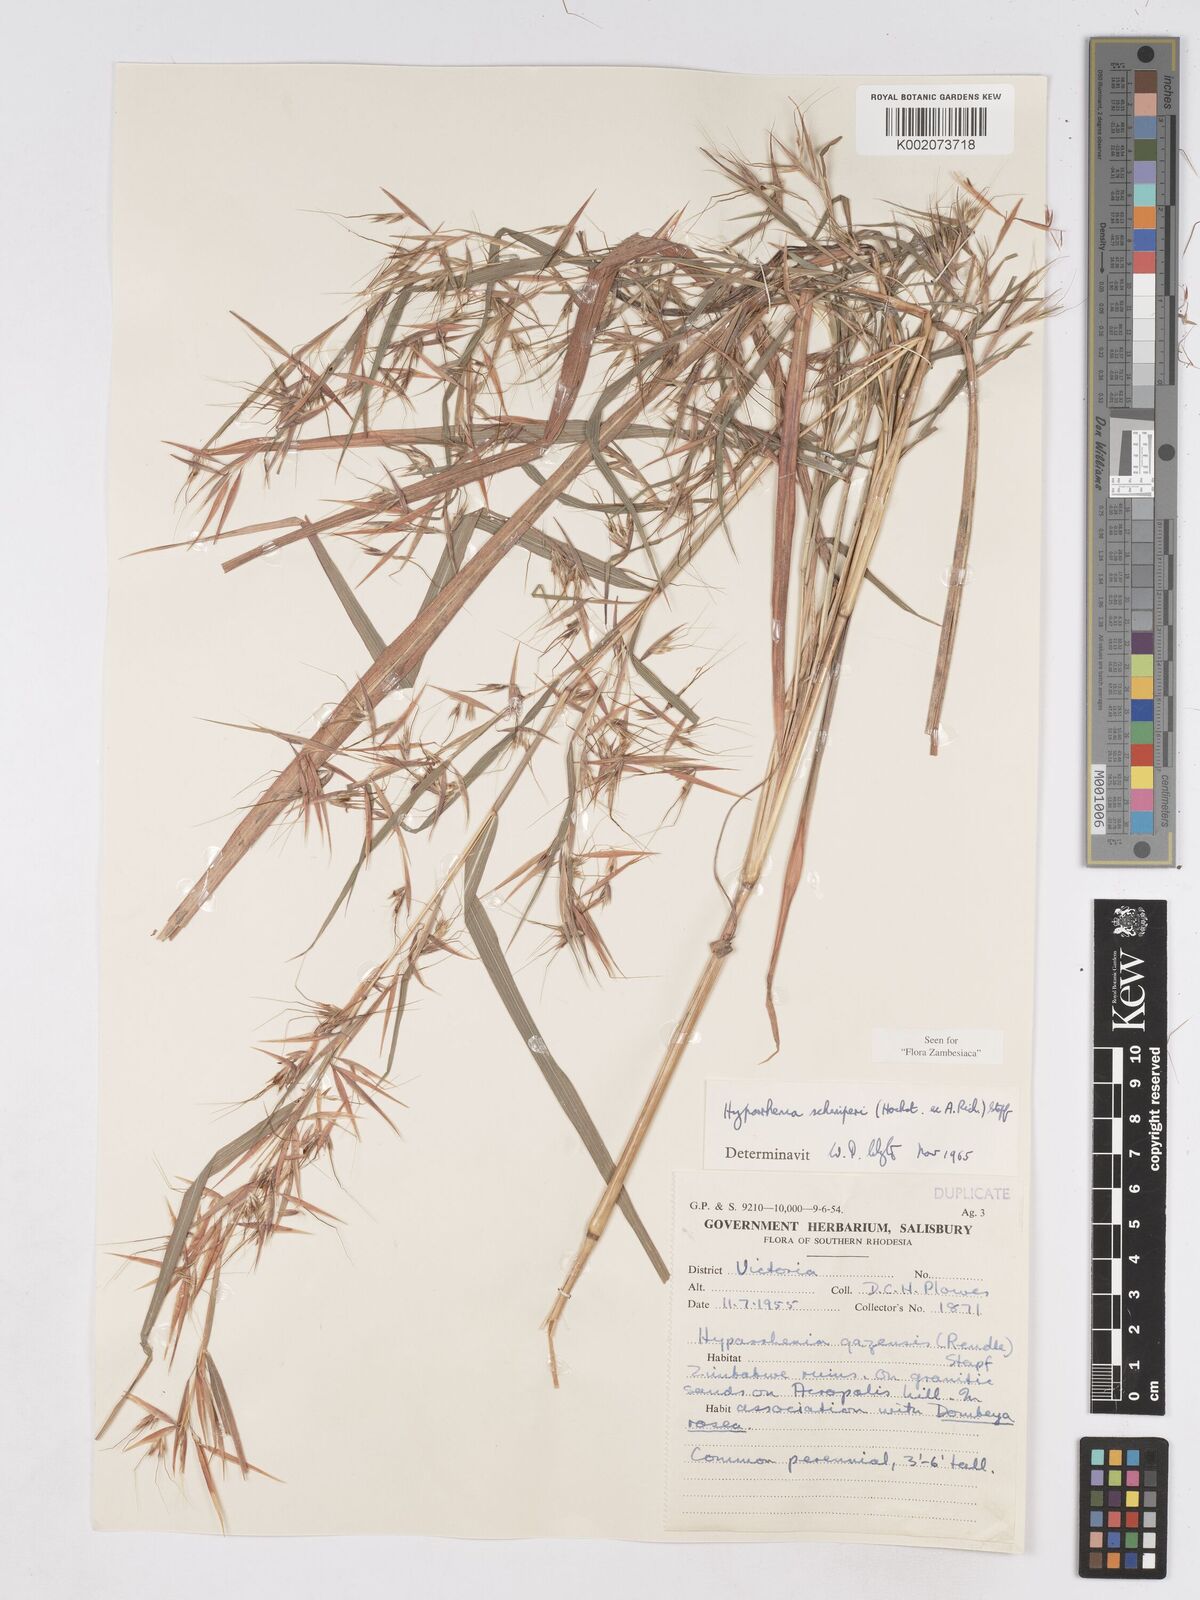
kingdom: Plantae
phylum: Tracheophyta
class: Liliopsida
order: Poales
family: Poaceae
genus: Hyparrhenia
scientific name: Hyparrhenia schimperi
